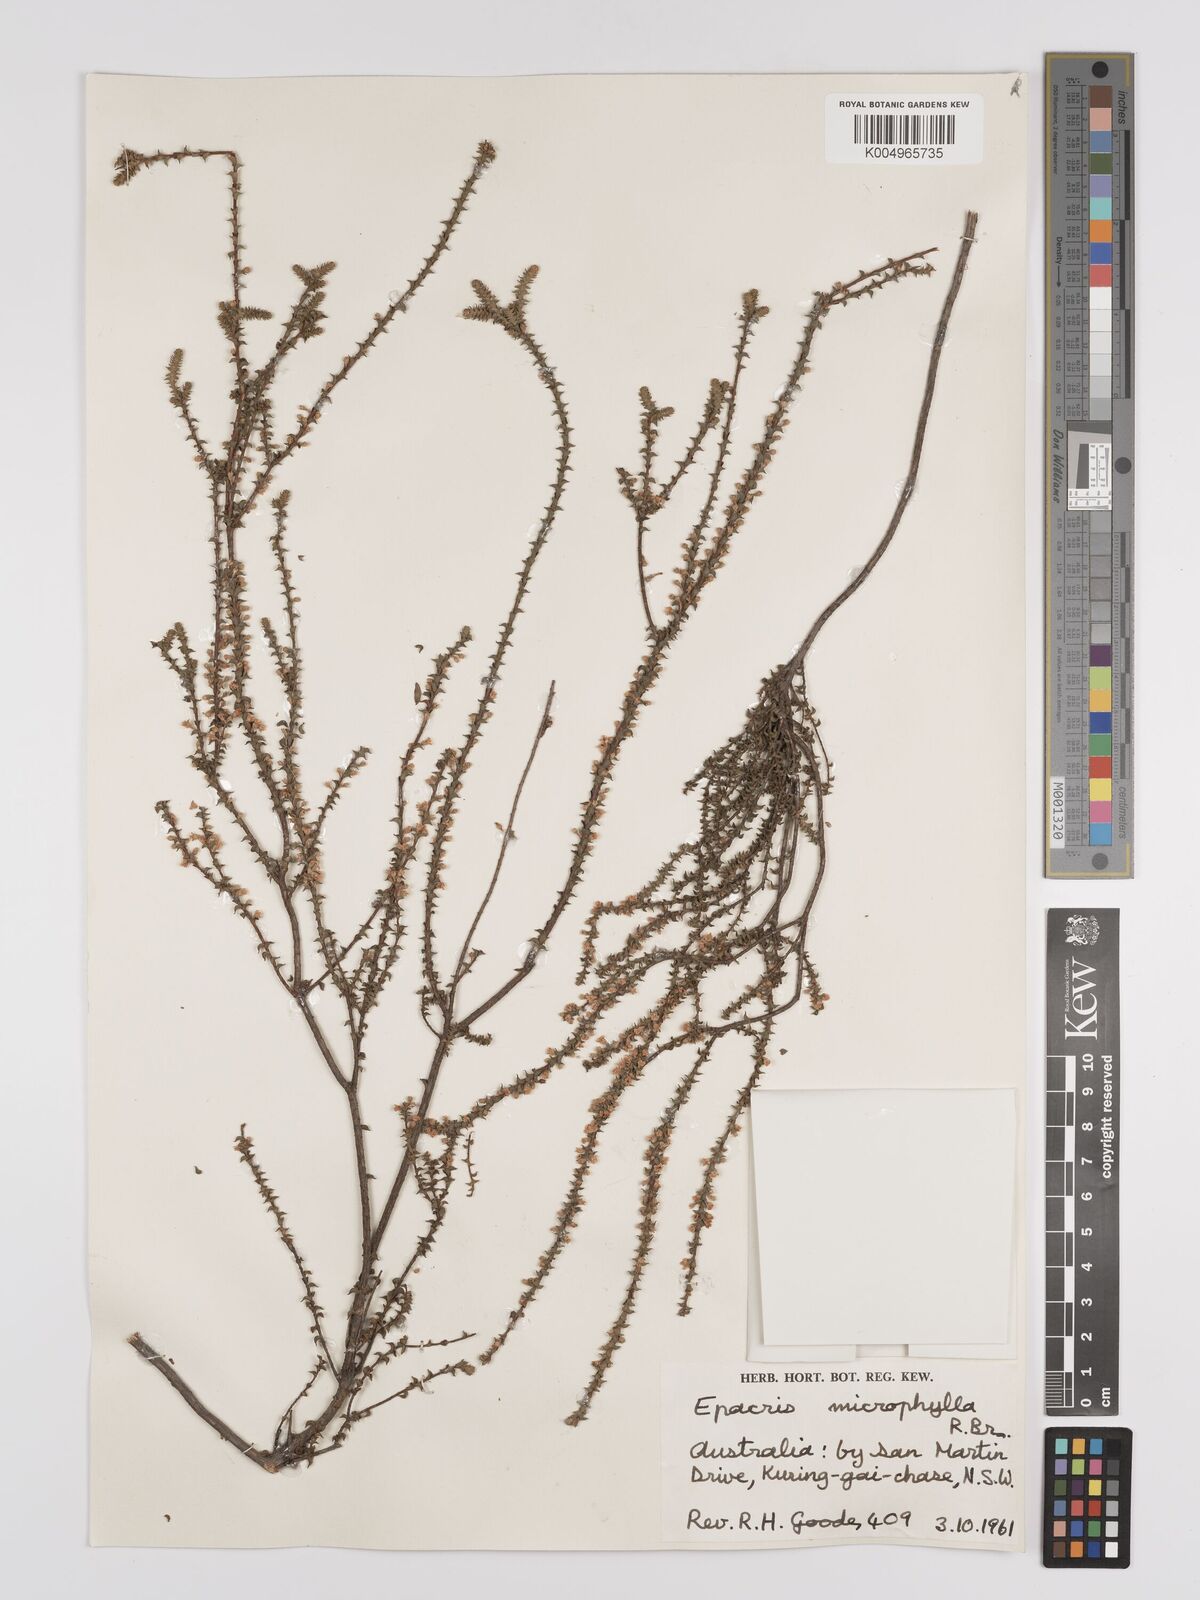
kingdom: Plantae
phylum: Tracheophyta
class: Magnoliopsida
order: Ericales
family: Ericaceae
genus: Epacris
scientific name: Epacris
